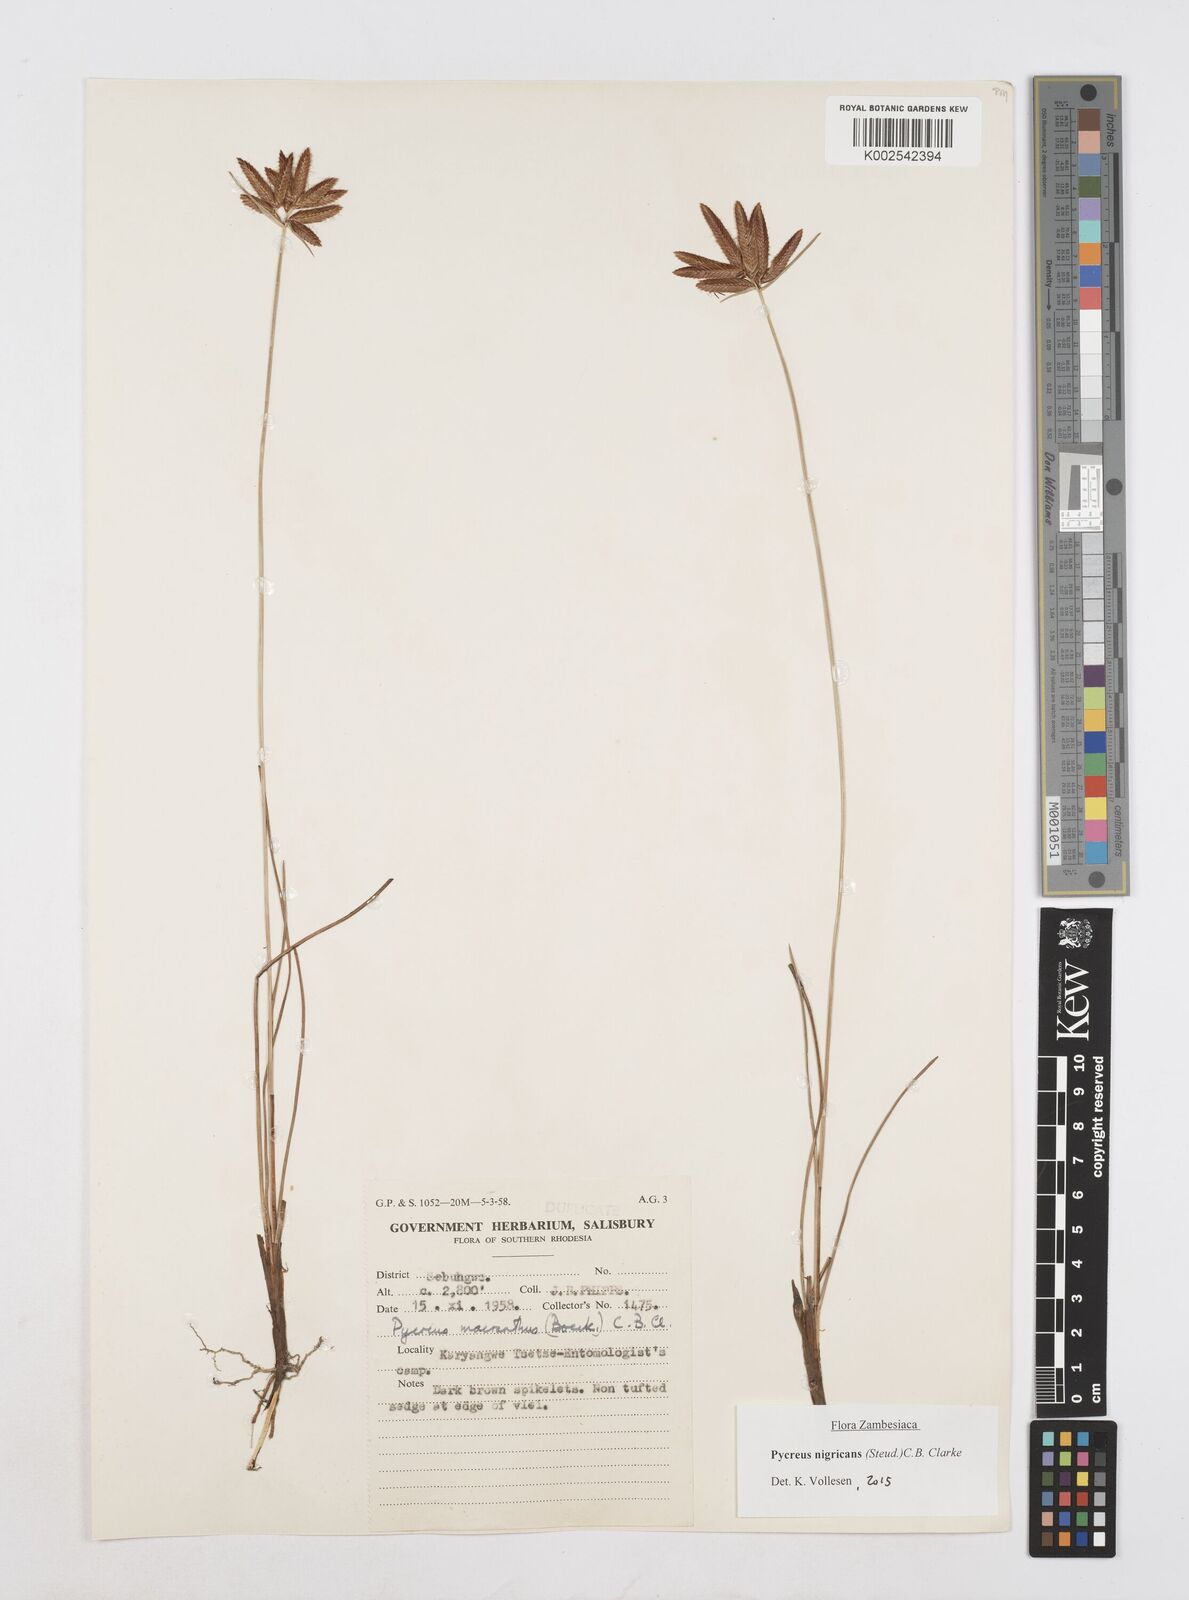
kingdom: Plantae
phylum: Tracheophyta
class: Liliopsida
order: Poales
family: Cyperaceae
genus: Cyperus
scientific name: Cyperus nigricans
